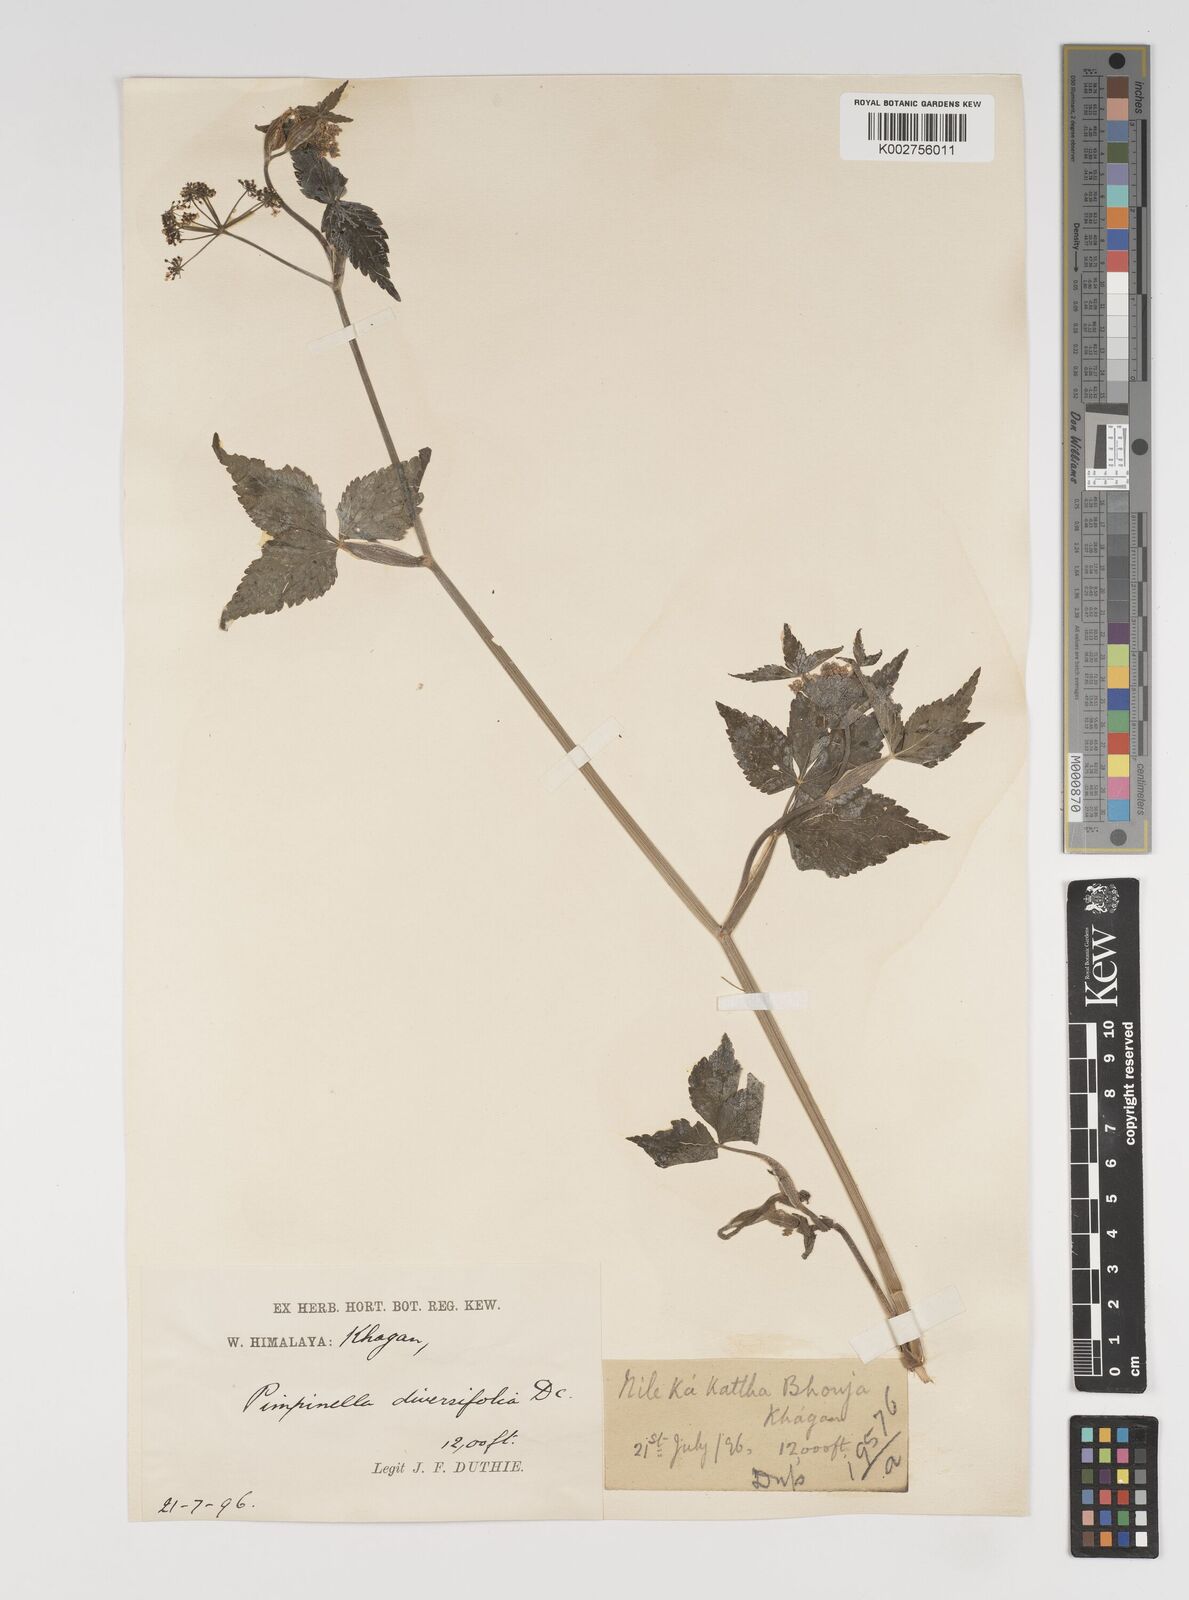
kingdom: Plantae
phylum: Tracheophyta
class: Magnoliopsida
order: Apiales
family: Apiaceae
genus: Pimpinella
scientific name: Pimpinella diversifolia
